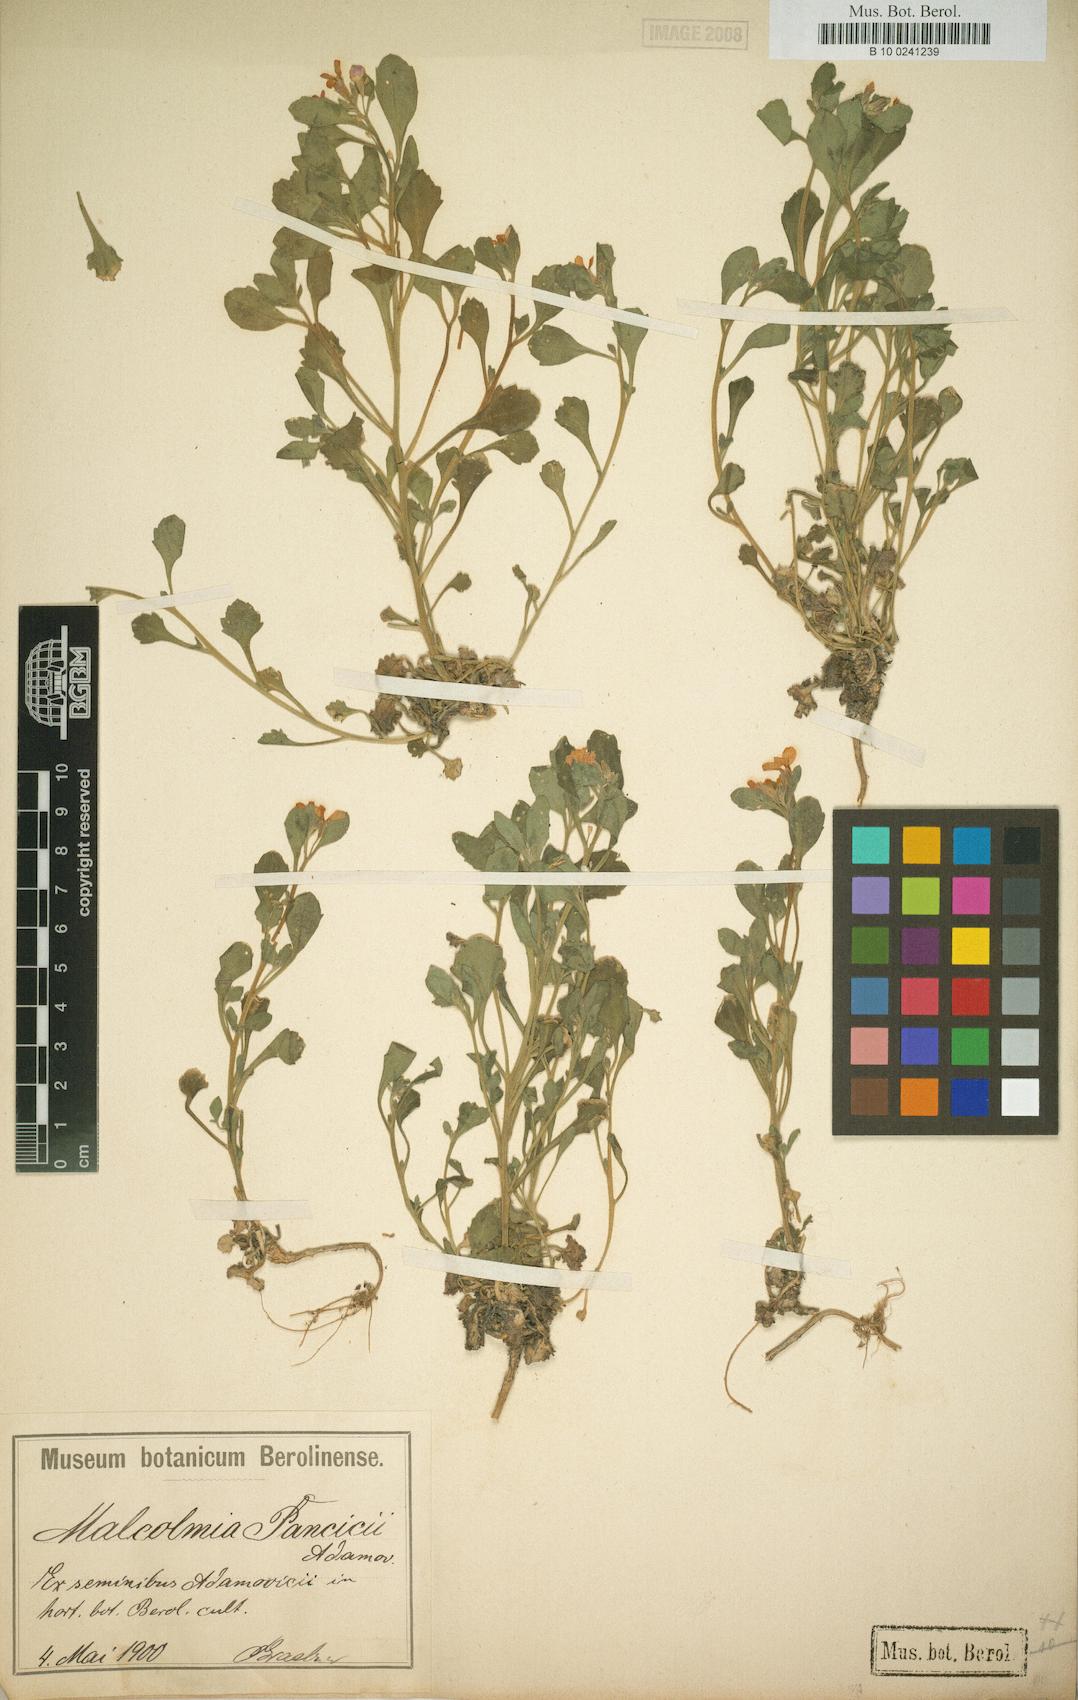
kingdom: Plantae
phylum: Tracheophyta
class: Magnoliopsida
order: Brassicales
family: Brassicaceae
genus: Malcolmia
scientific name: Malcolmia orsiniana
